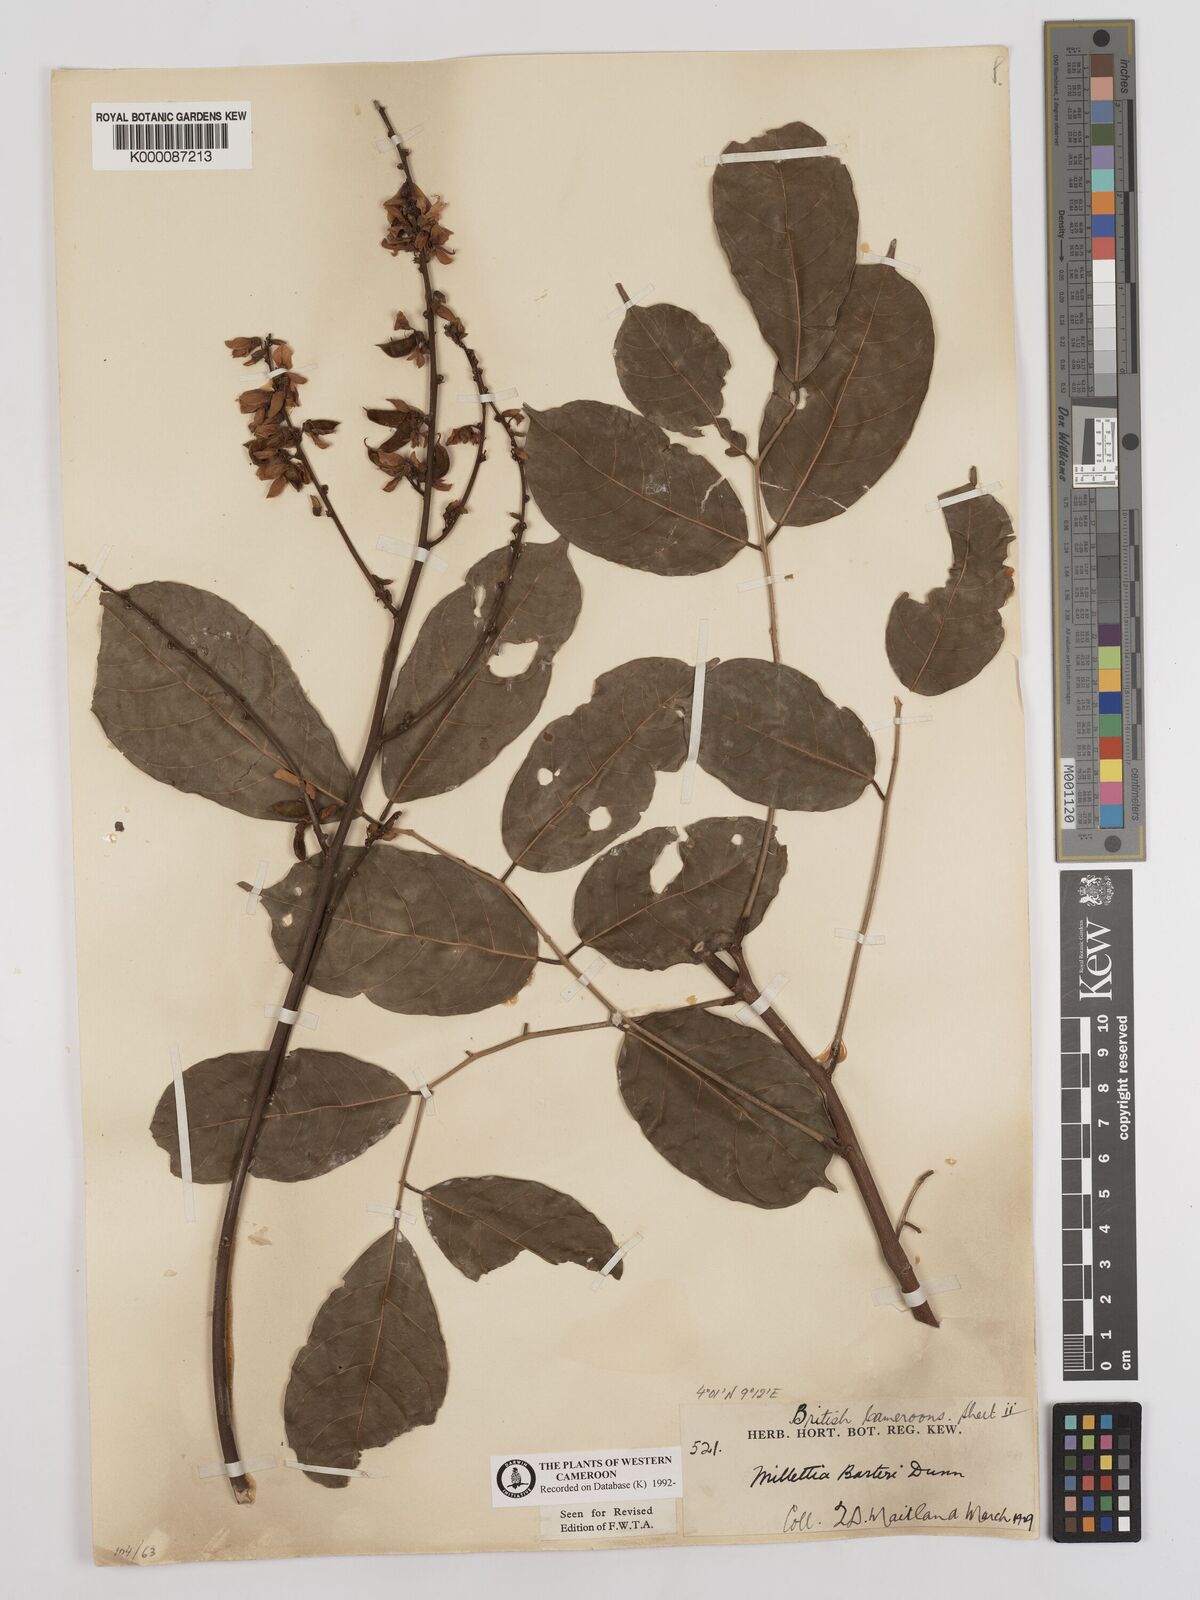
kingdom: Plantae
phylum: Tracheophyta
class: Magnoliopsida
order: Fabales
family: Fabaceae
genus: Millettia
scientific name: Millettia barteri
